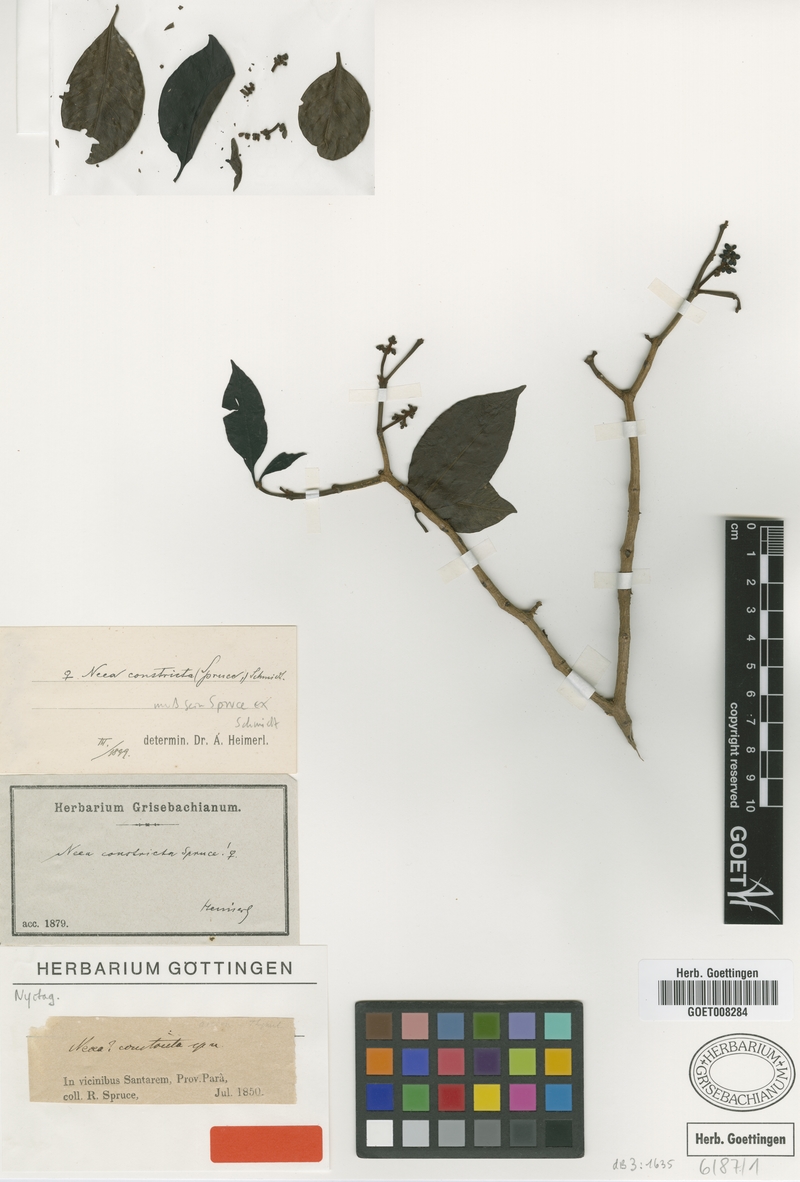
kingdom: Plantae
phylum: Tracheophyta
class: Magnoliopsida
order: Caryophyllales
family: Nyctaginaceae
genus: Neea
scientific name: Neea constricta
